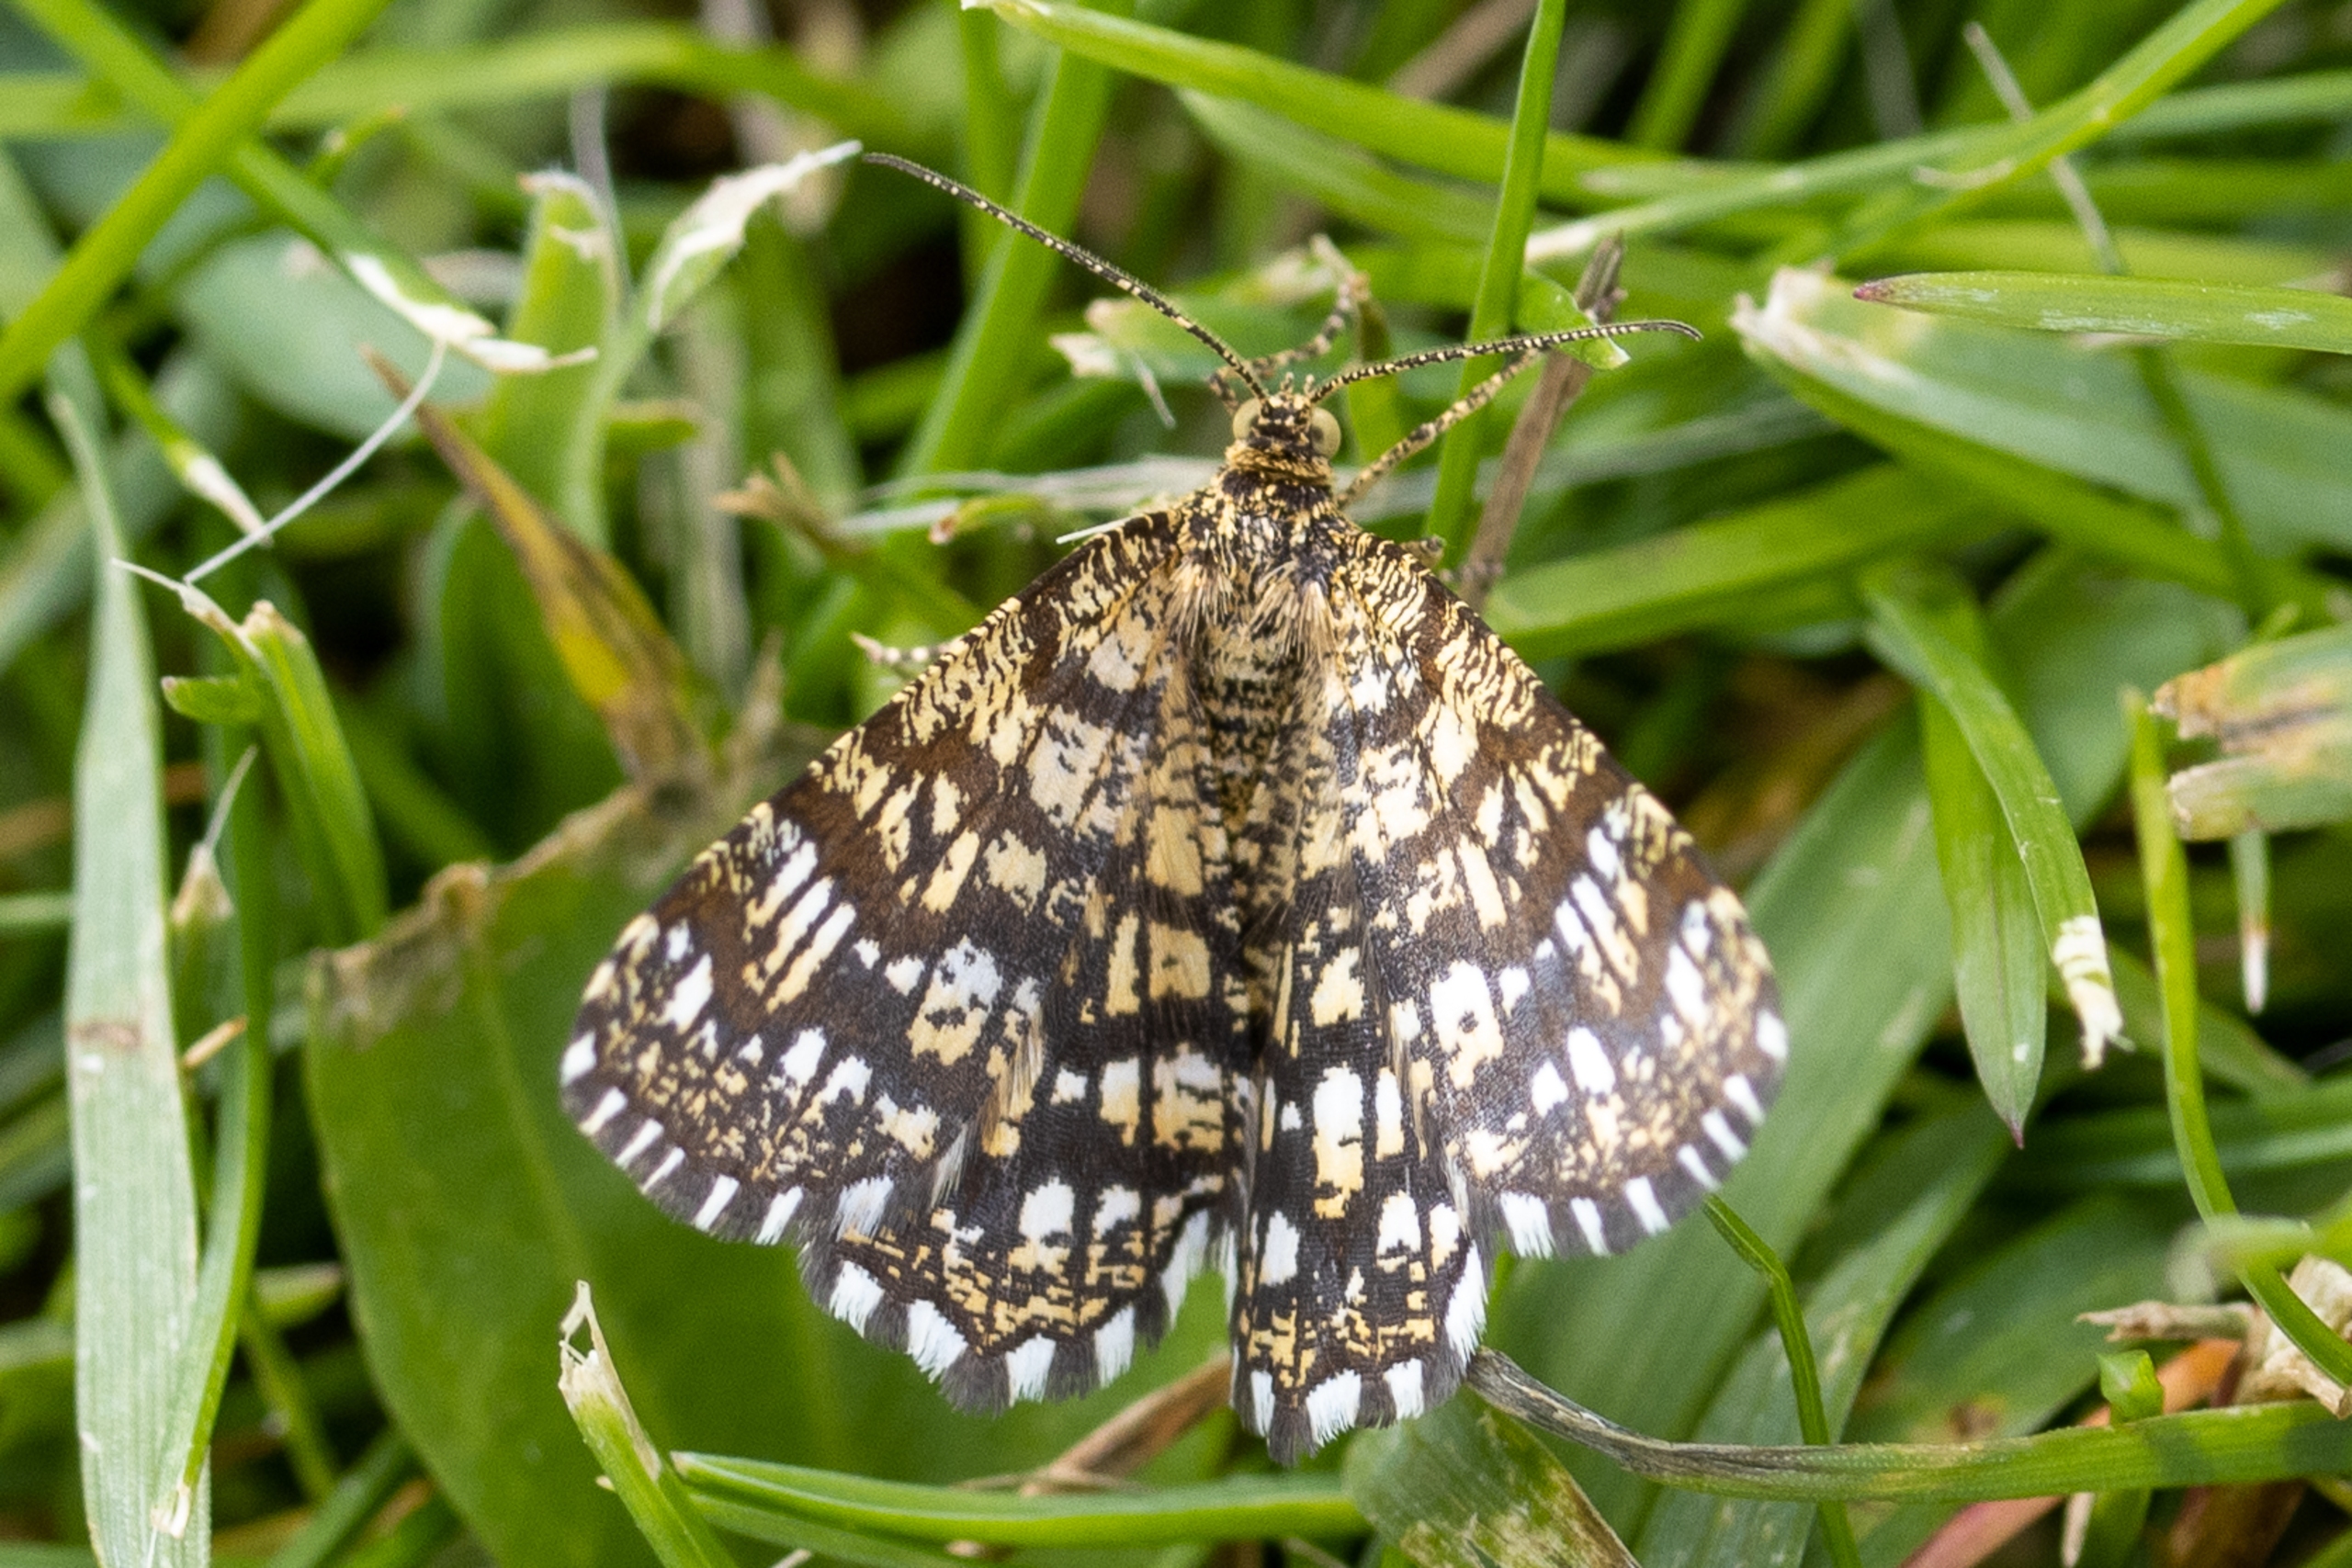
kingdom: Animalia
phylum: Arthropoda
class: Insecta
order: Lepidoptera
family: Geometridae
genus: Chiasmia
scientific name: Chiasmia clathrata
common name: Kløvermåler
